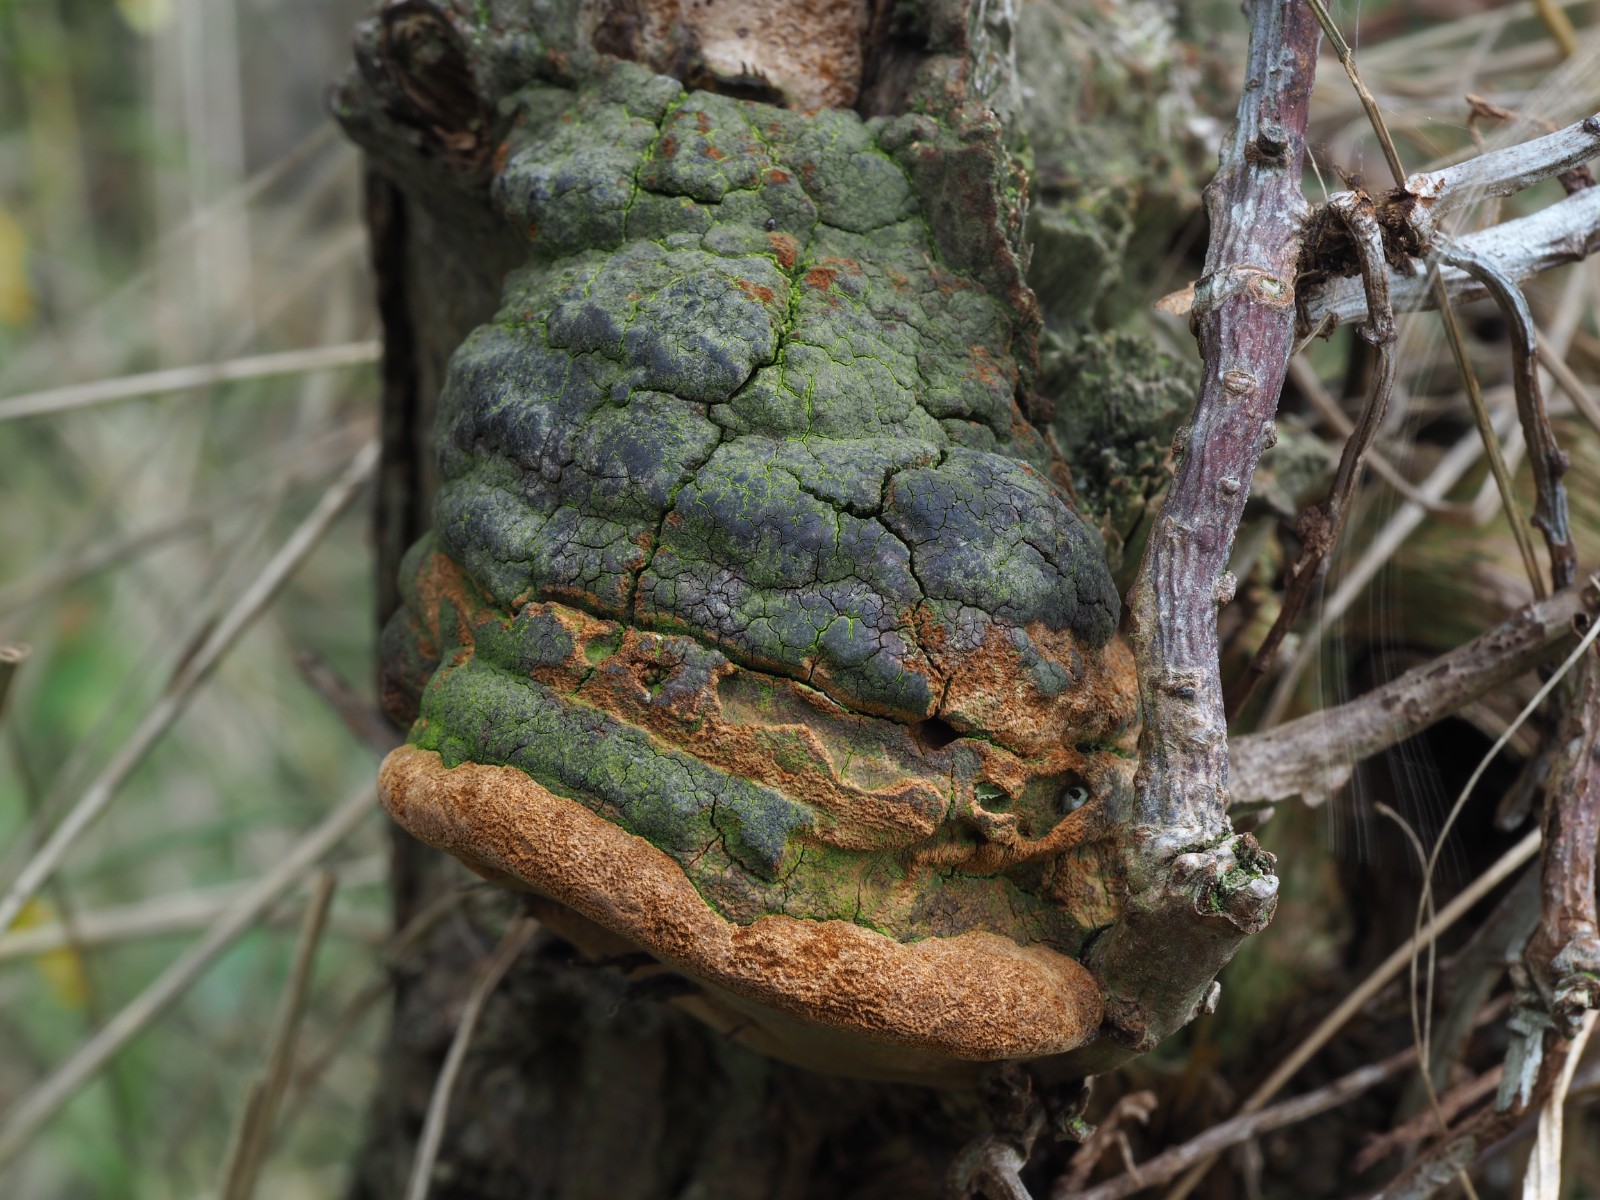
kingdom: Fungi
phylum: Basidiomycota
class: Agaricomycetes
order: Hymenochaetales
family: Hymenochaetaceae
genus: Fomitiporia
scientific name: Fomitiporia hippophaeicola
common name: havtorn-ildporesvamp
